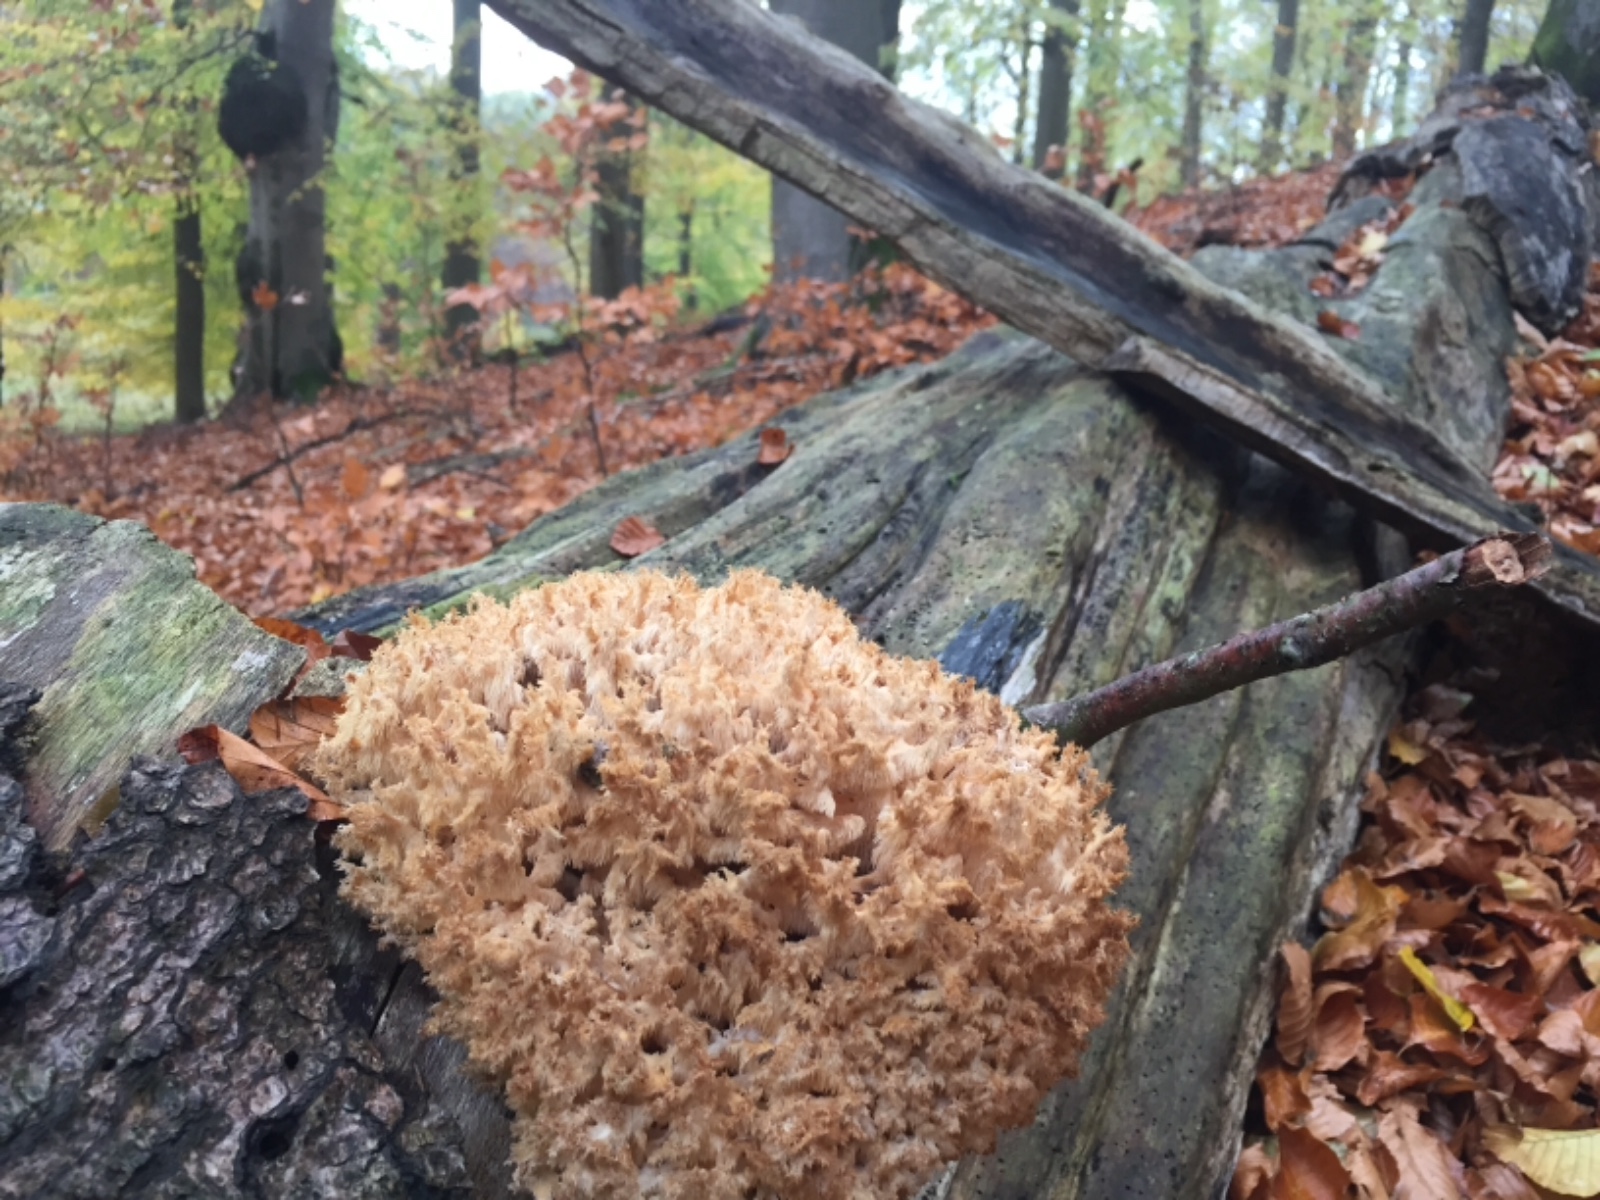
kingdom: Fungi
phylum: Basidiomycota
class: Agaricomycetes
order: Russulales
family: Hericiaceae
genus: Hericium
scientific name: Hericium coralloides
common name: koralpigsvamp
